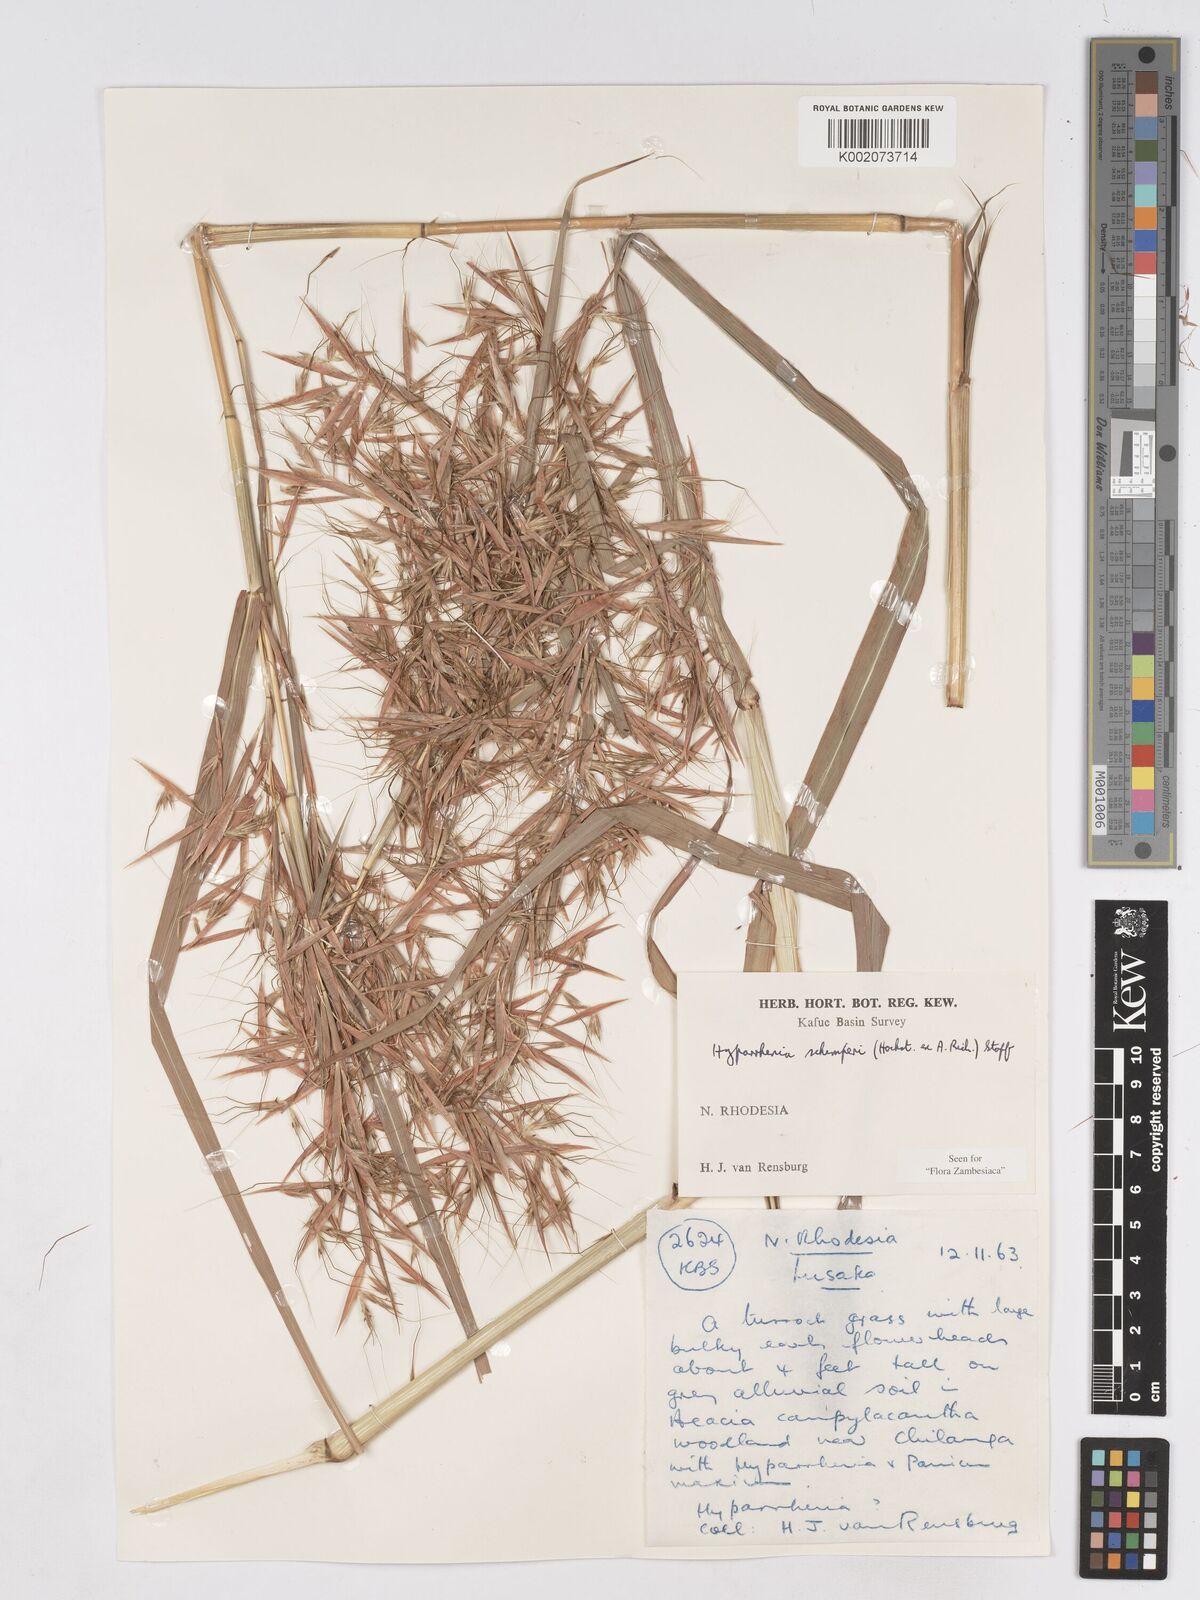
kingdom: Plantae
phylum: Tracheophyta
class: Liliopsida
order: Poales
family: Poaceae
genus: Hyparrhenia
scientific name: Hyparrhenia schimperi
